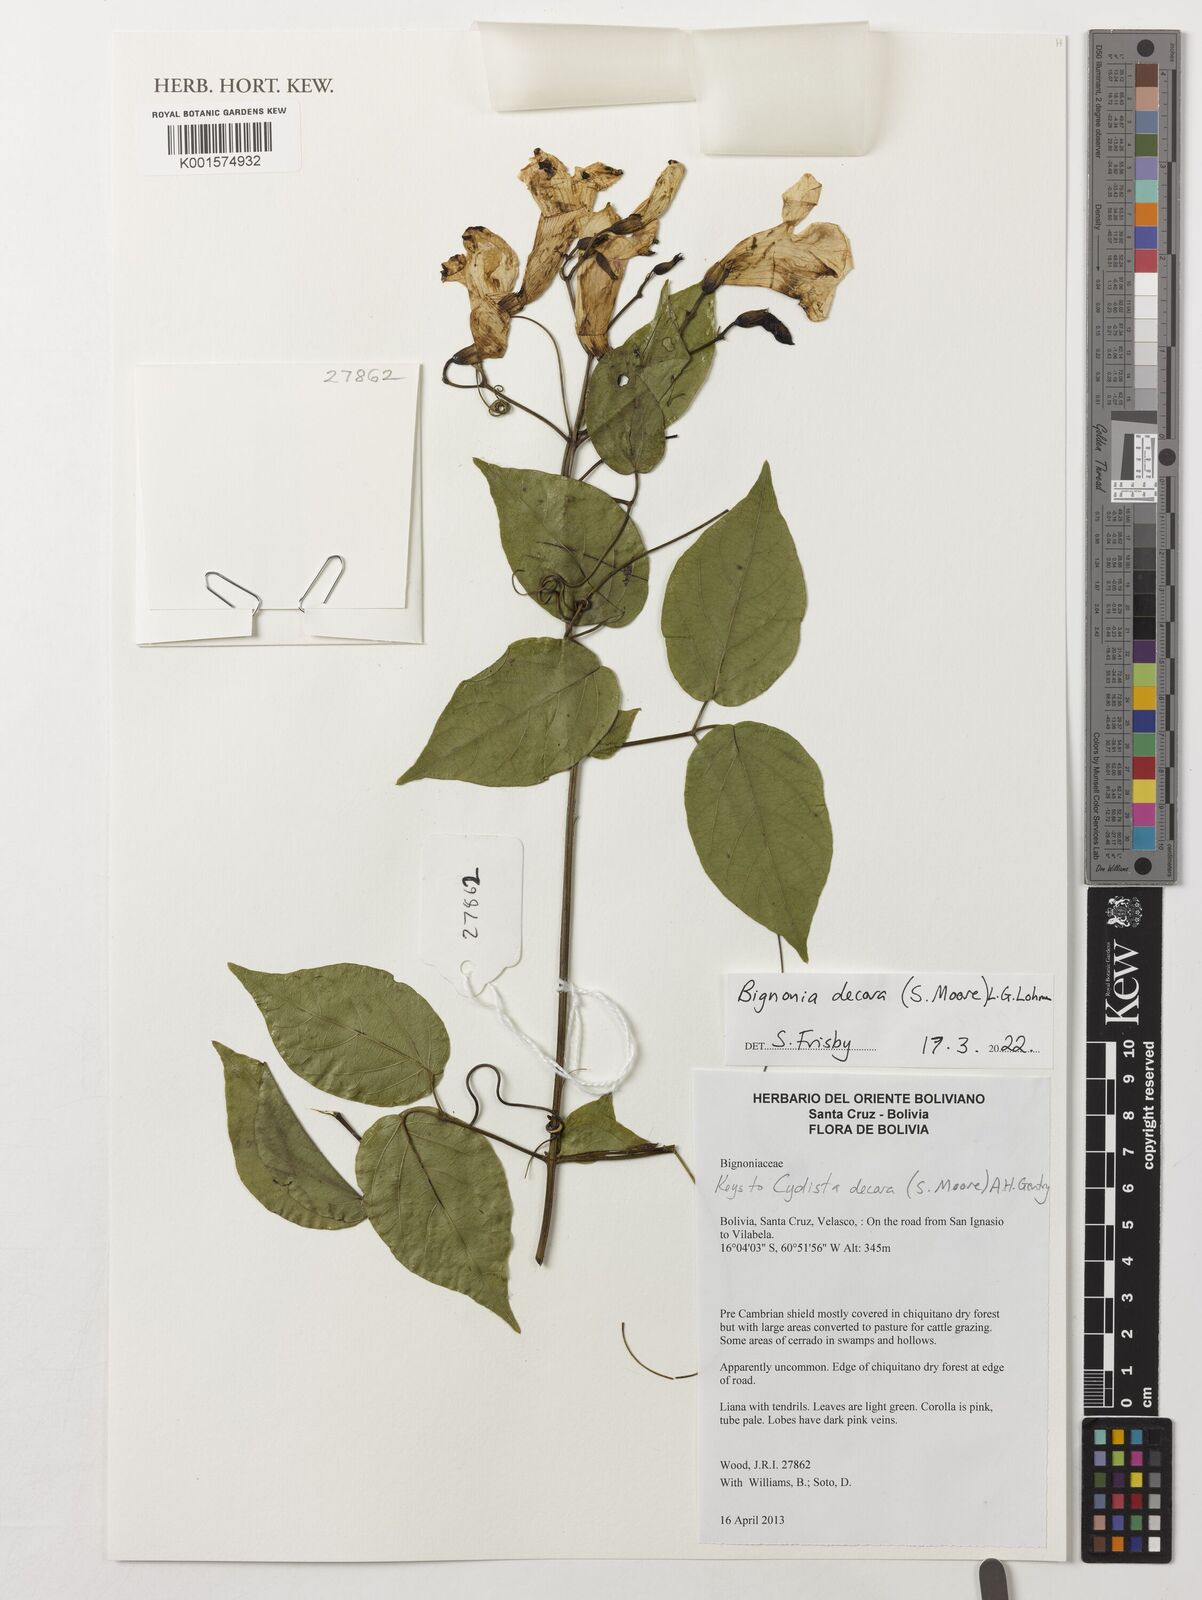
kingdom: Plantae
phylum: Tracheophyta
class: Magnoliopsida
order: Lamiales
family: Bignoniaceae
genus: Bignonia
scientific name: Bignonia decora
